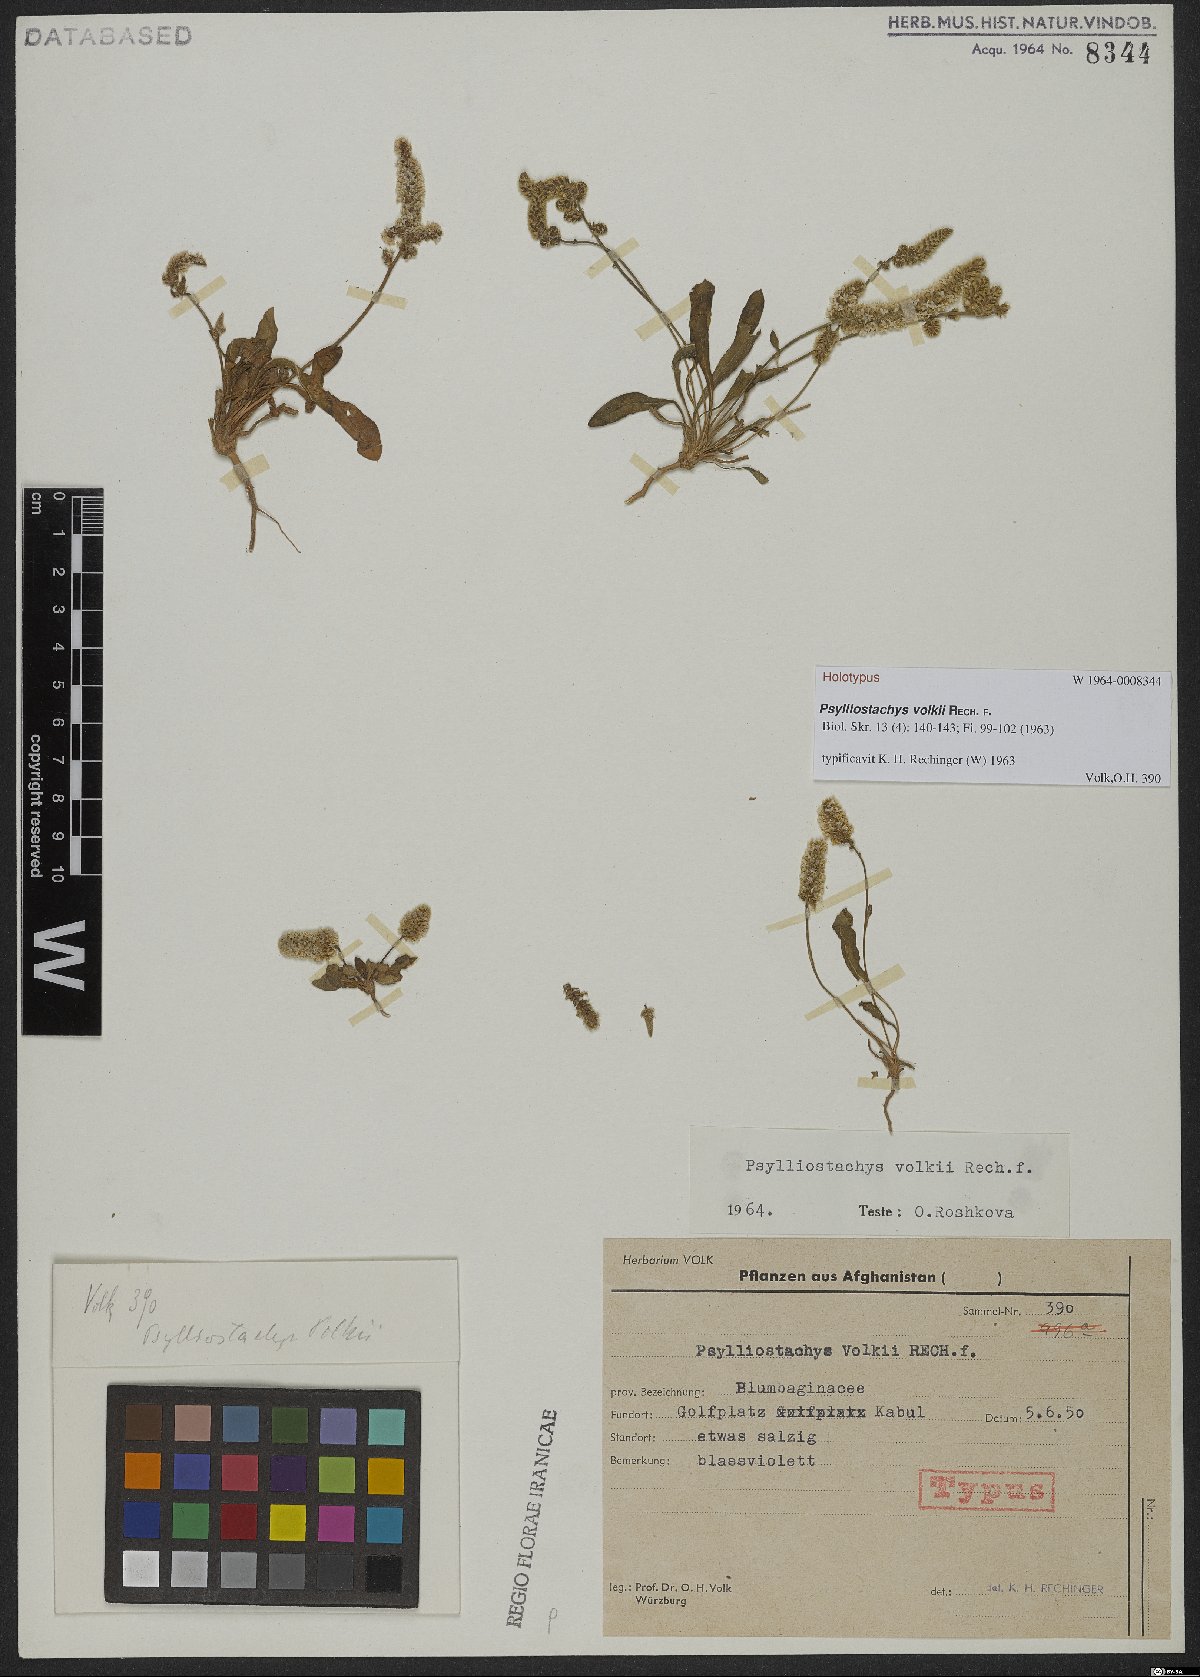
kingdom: Plantae
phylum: Tracheophyta
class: Magnoliopsida
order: Caryophyllales
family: Plumbaginaceae
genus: Psylliostachys
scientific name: Psylliostachys volkii
